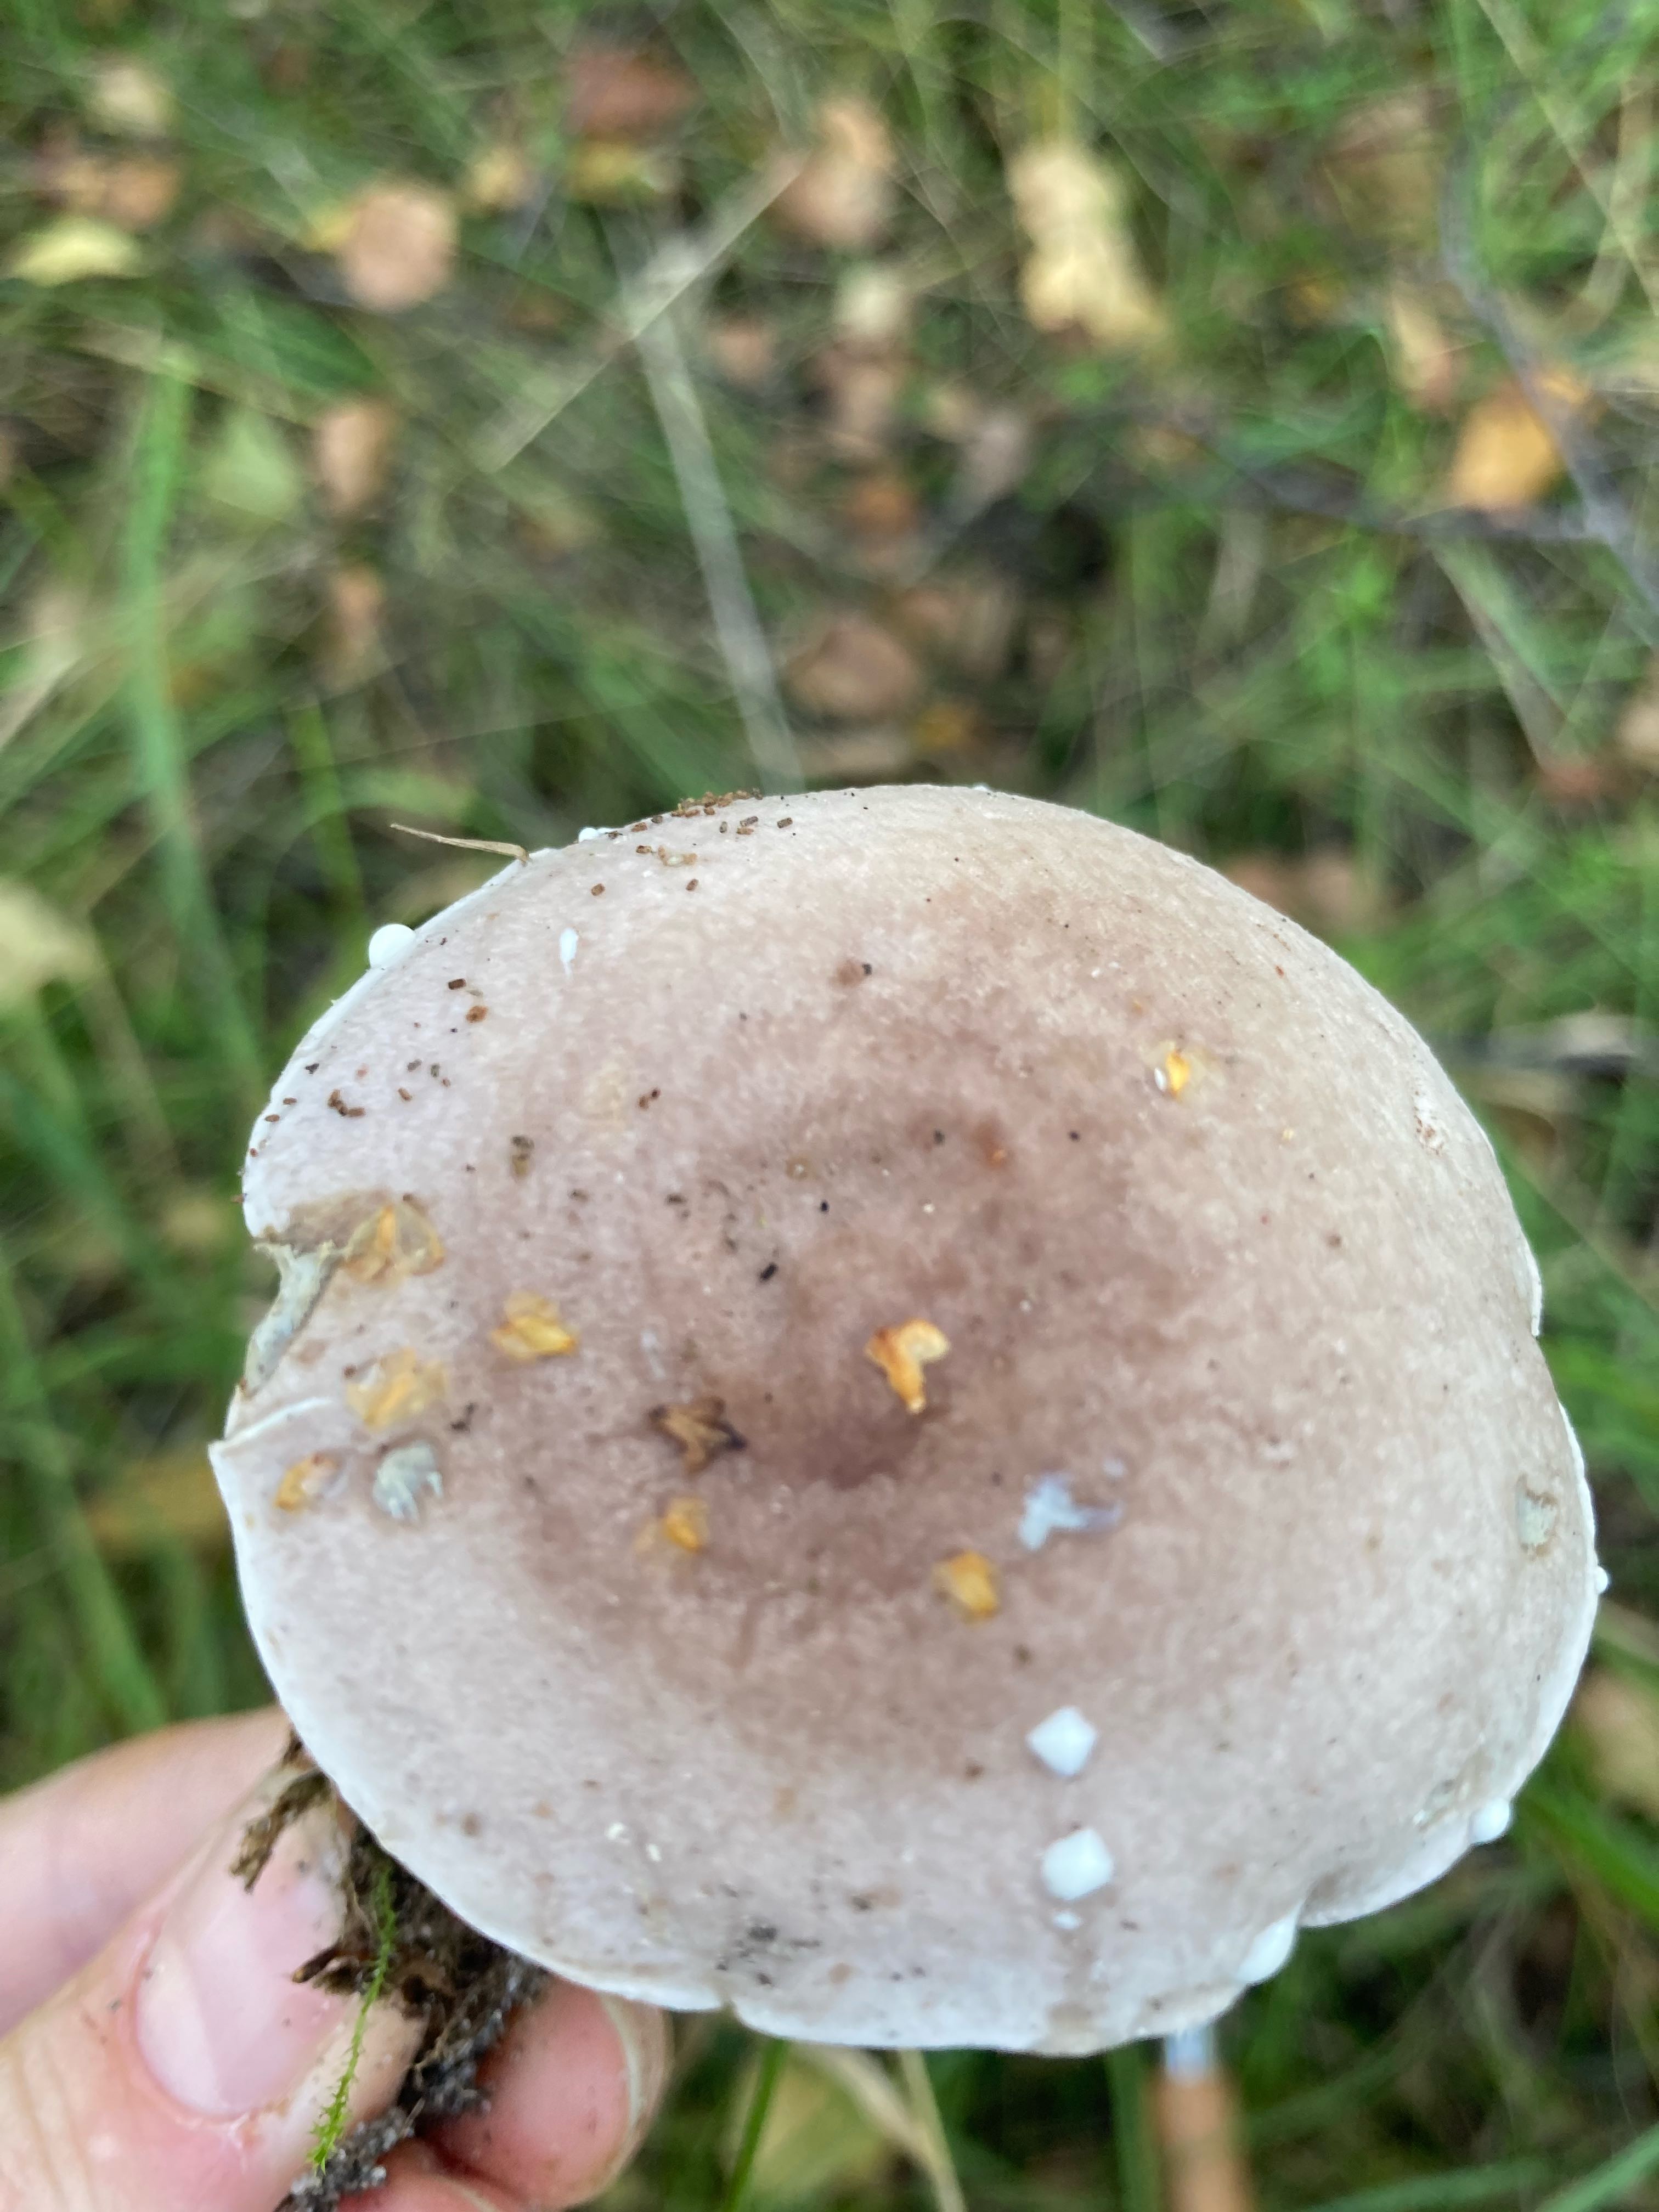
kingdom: Fungi
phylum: Basidiomycota
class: Agaricomycetes
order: Russulales
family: Russulaceae
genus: Lactarius
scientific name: Lactarius vietus
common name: violetgrå mælkehat
